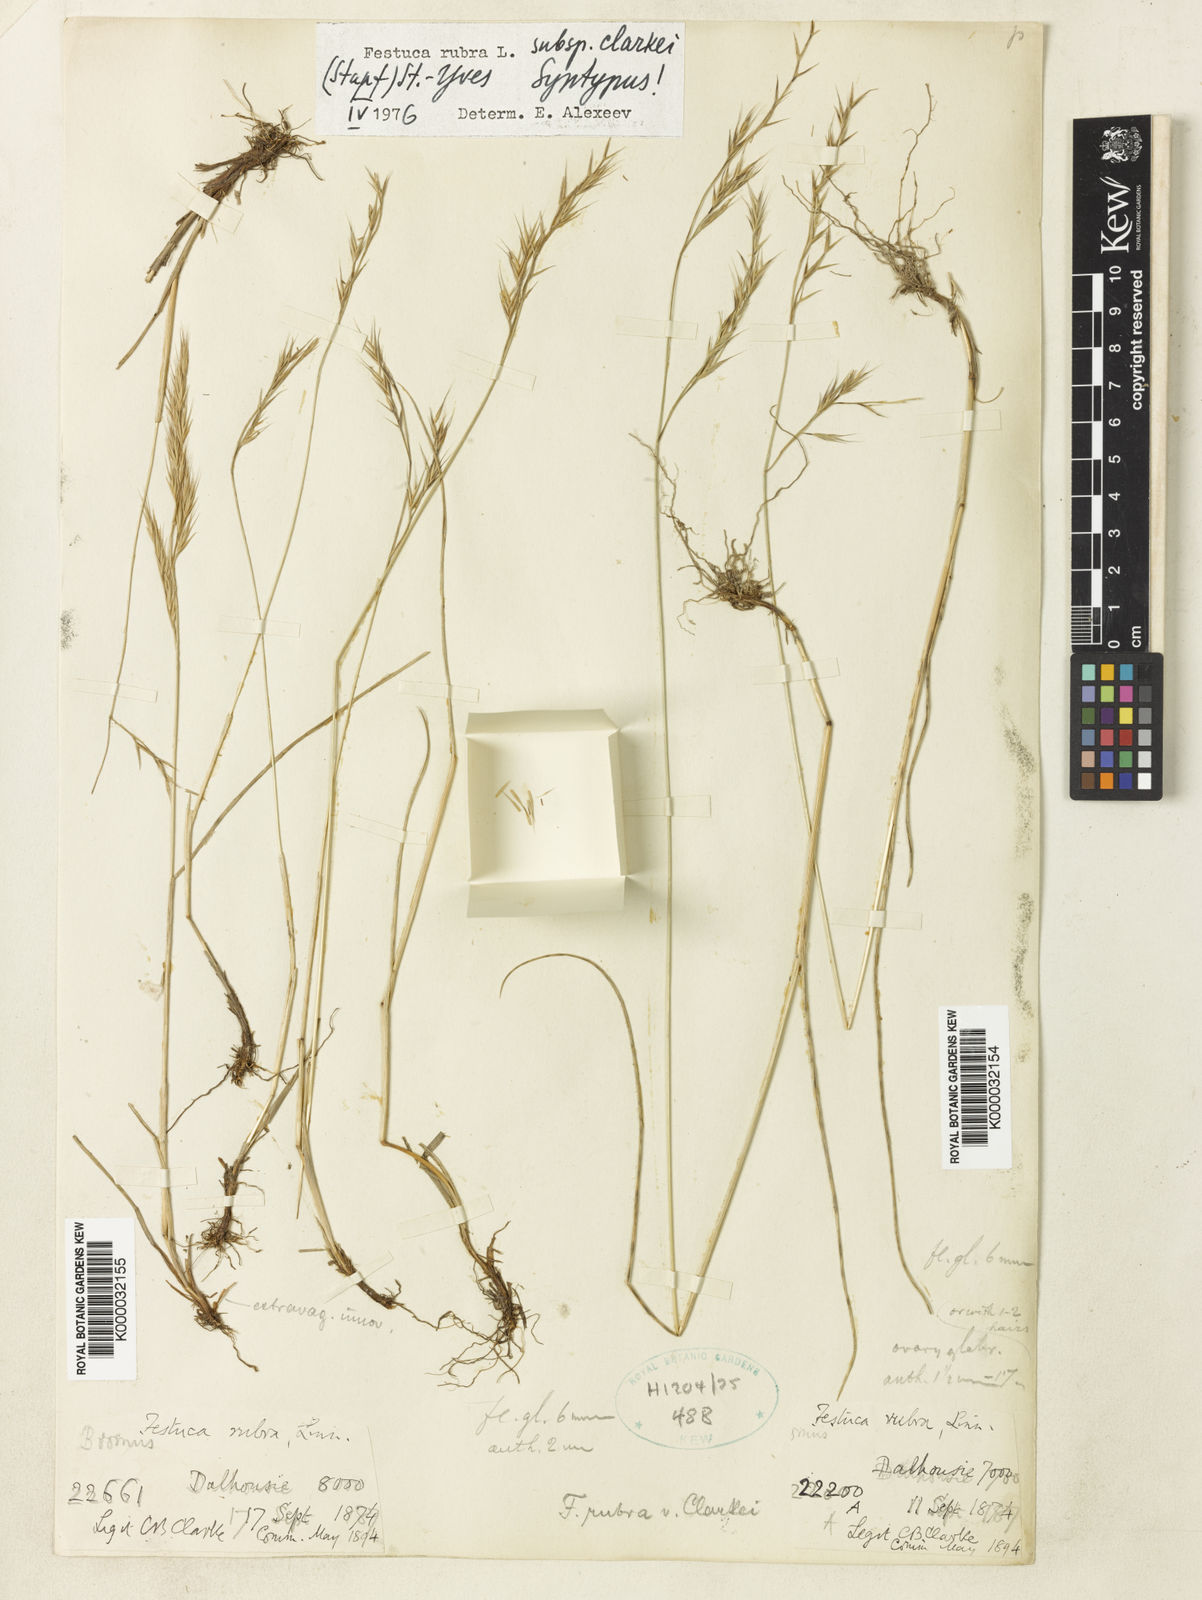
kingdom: Plantae
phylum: Tracheophyta
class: Liliopsida
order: Poales
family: Poaceae
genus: Festuca
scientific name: Festuca rubra
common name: Red fescue
